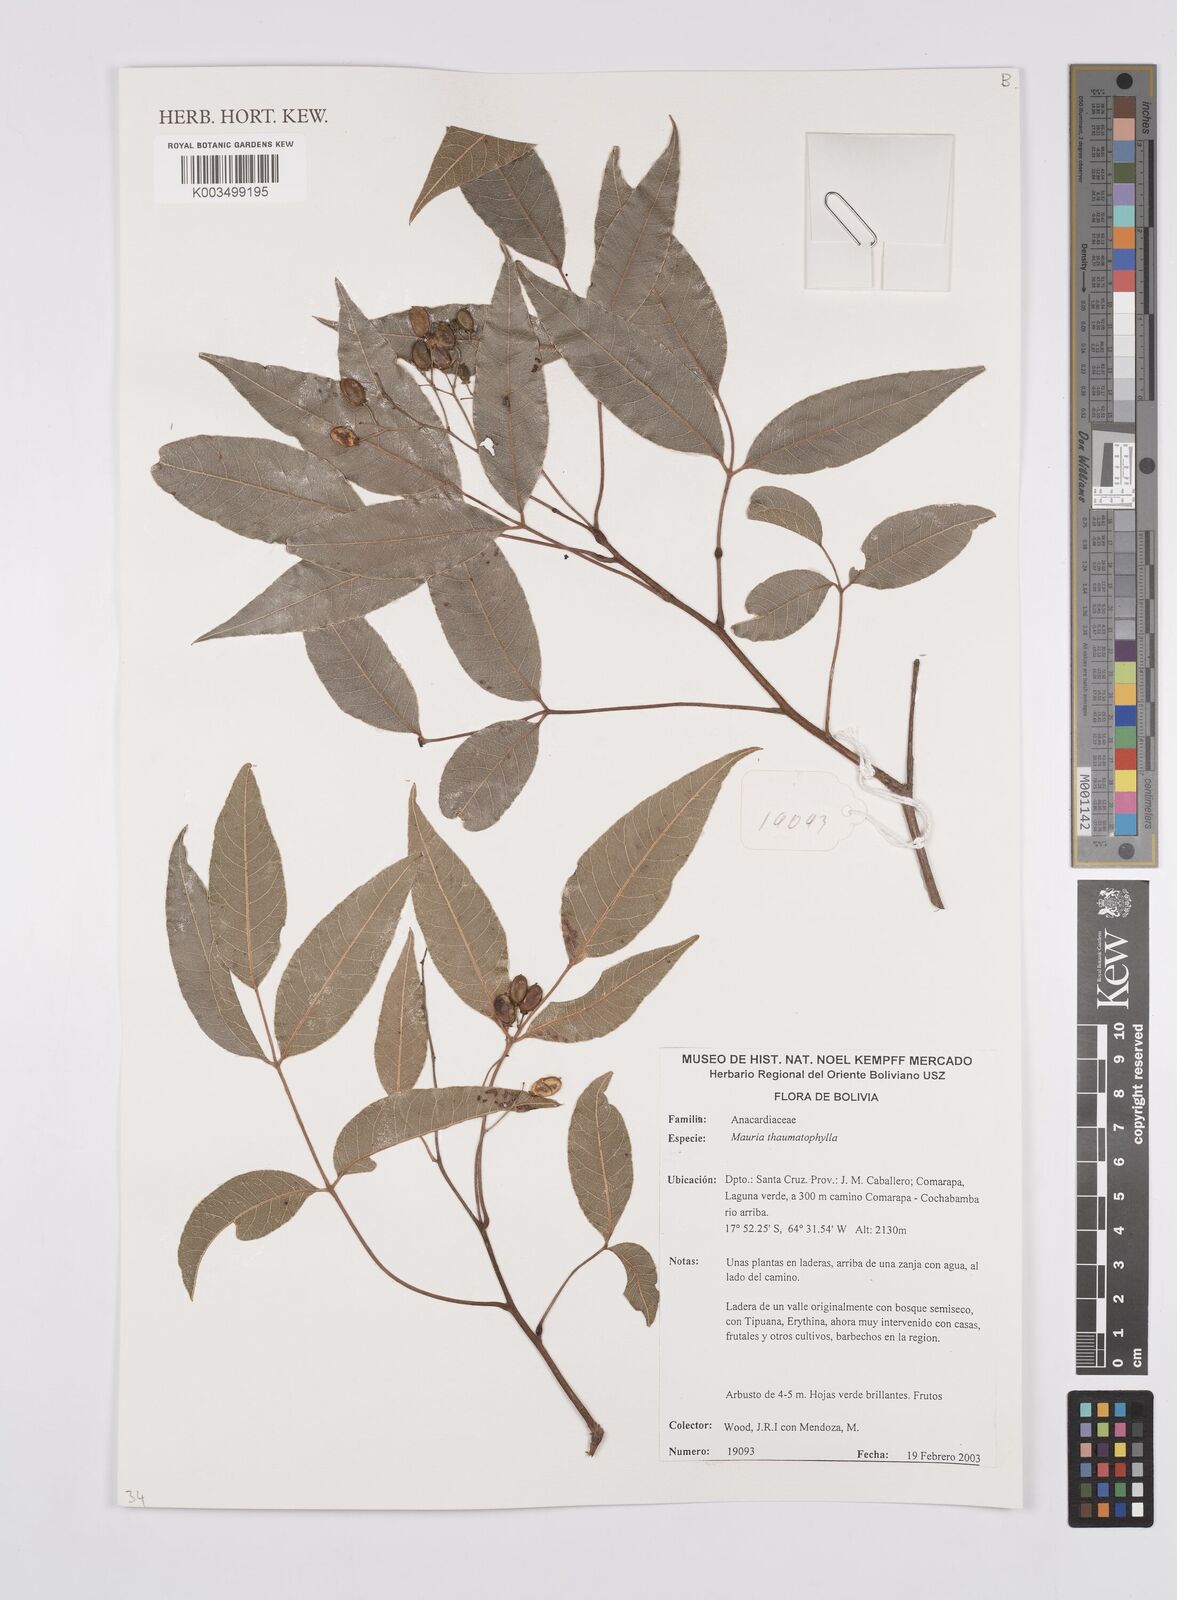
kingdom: Plantae
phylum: Tracheophyta
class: Magnoliopsida
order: Sapindales
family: Anacardiaceae
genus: Mauria
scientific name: Mauria thaumatophylla
